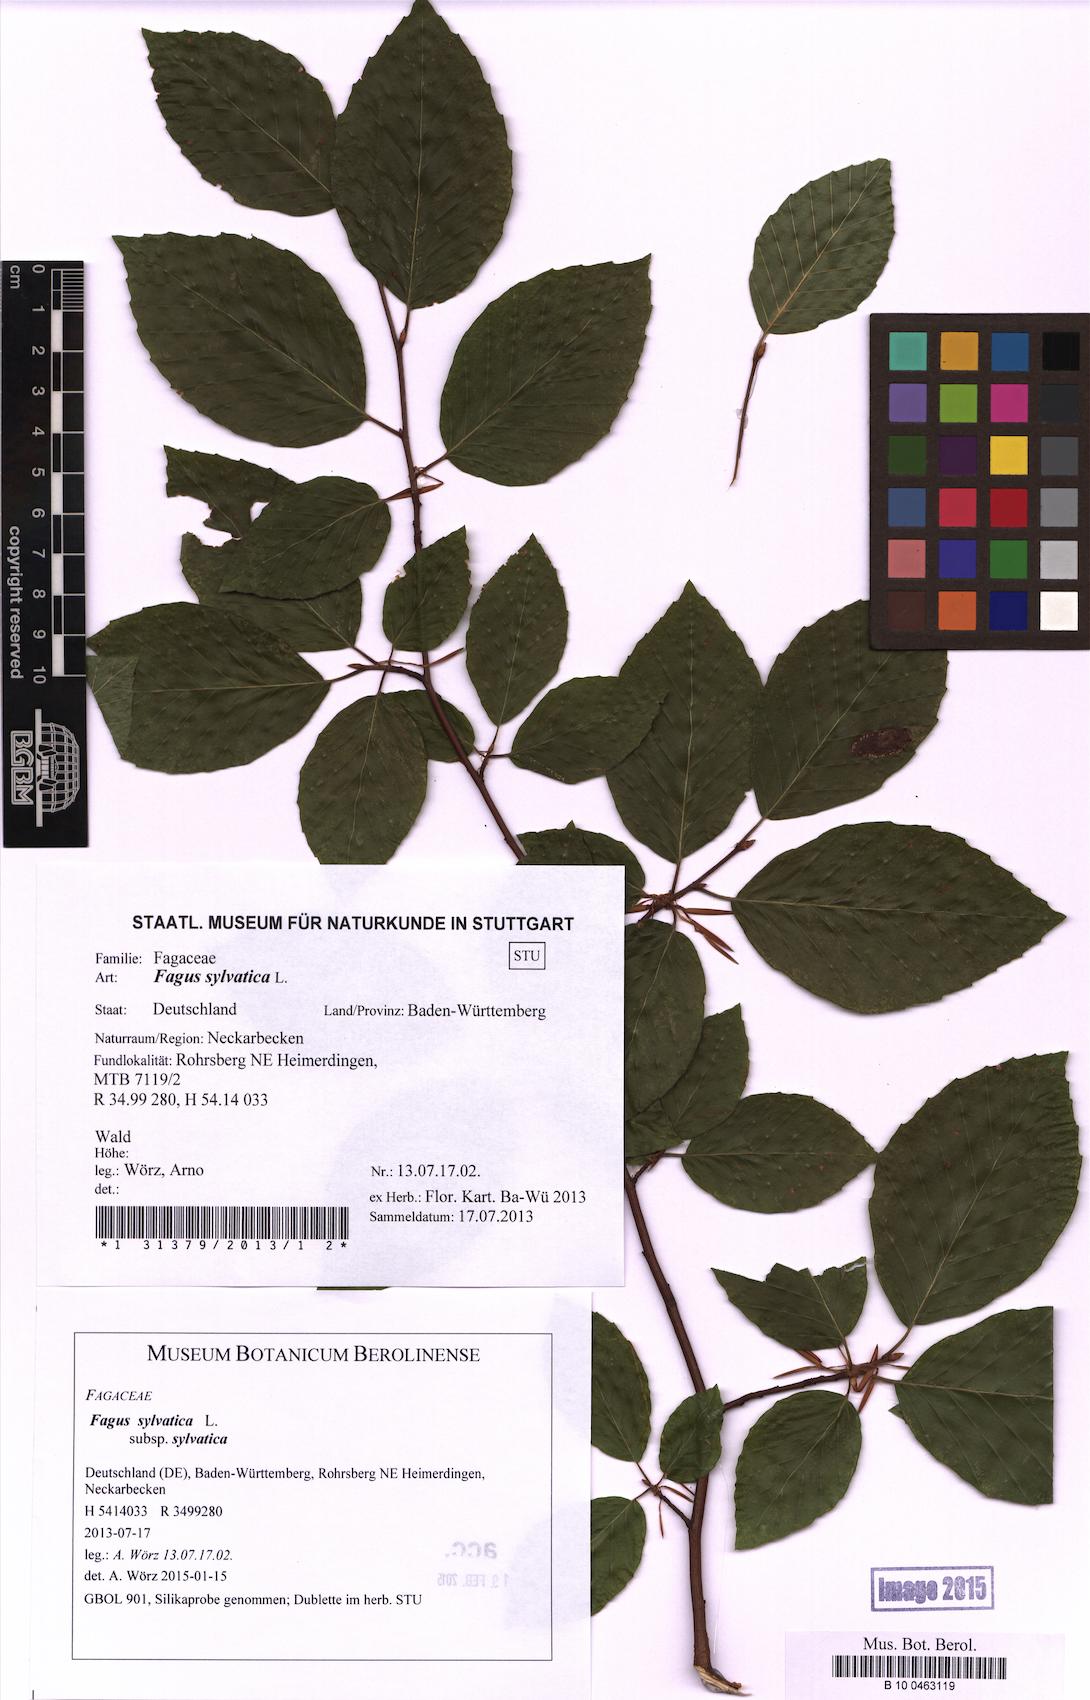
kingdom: Plantae
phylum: Tracheophyta
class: Magnoliopsida
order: Fagales
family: Fagaceae
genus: Fagus
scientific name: Fagus sylvatica
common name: Beech
